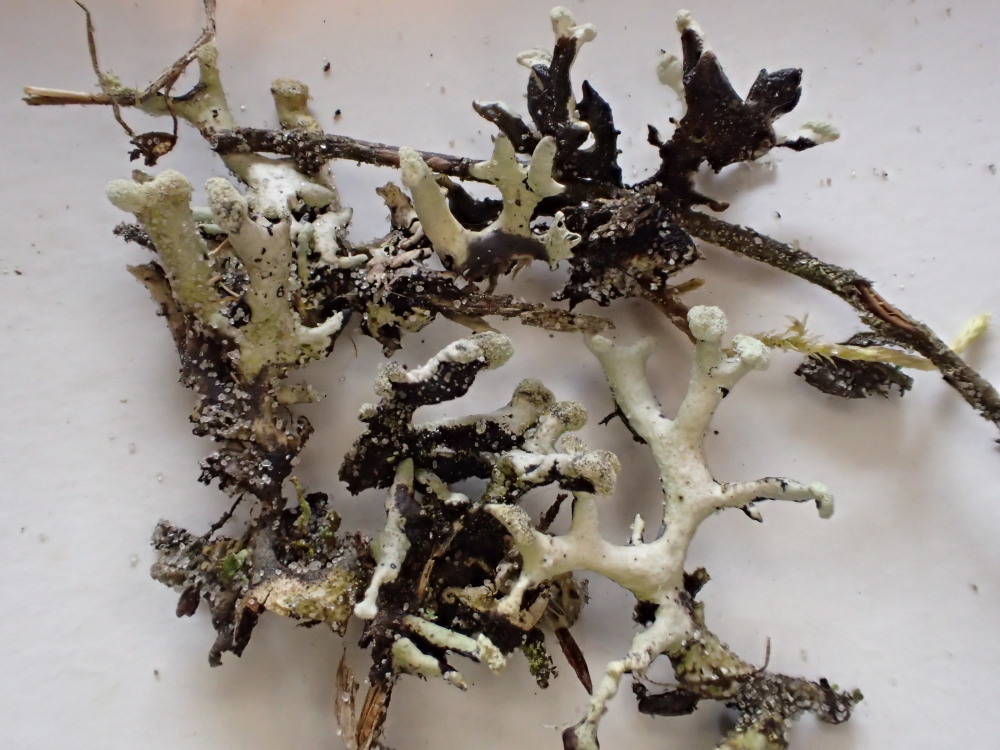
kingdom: Fungi
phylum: Ascomycota
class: Lecanoromycetes
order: Lecanorales
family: Parmeliaceae
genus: Hypogymnia
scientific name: Hypogymnia tubulosa
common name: finger-kvistlav
